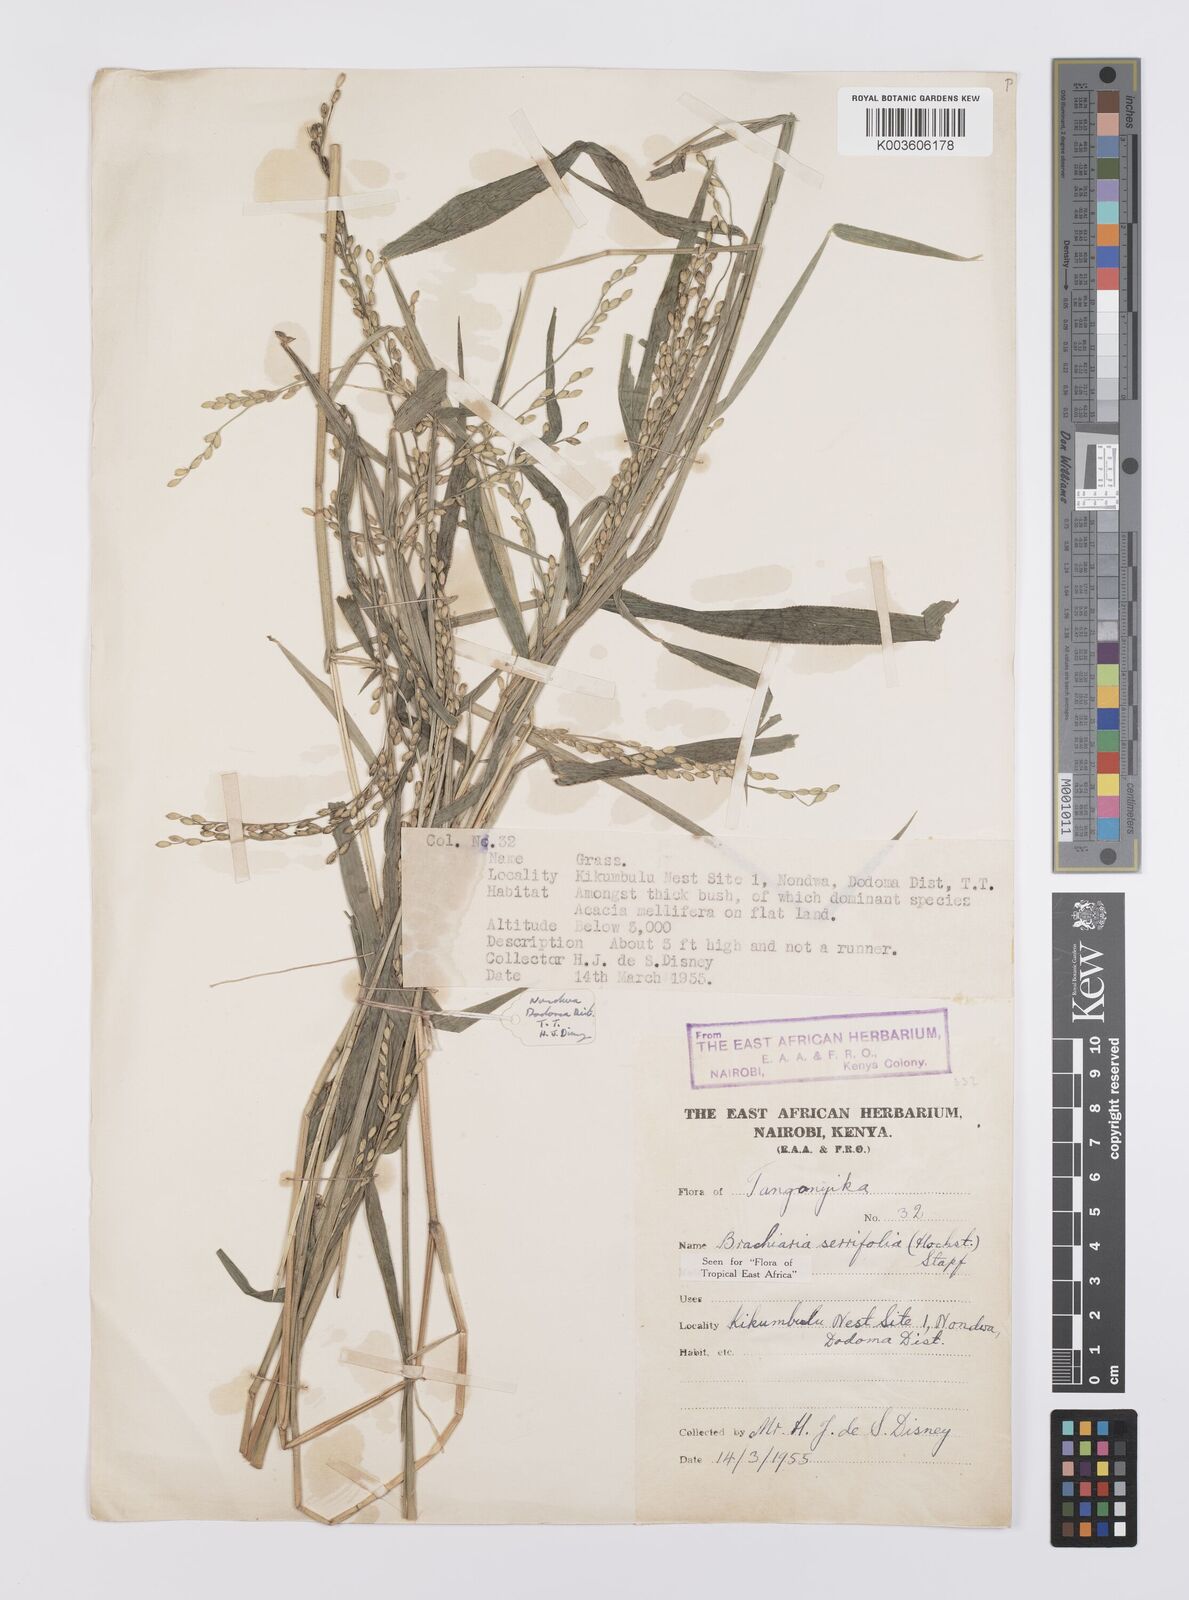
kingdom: Plantae
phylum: Tracheophyta
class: Liliopsida
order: Poales
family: Poaceae
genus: Urochloa
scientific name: Urochloa serrifolia
